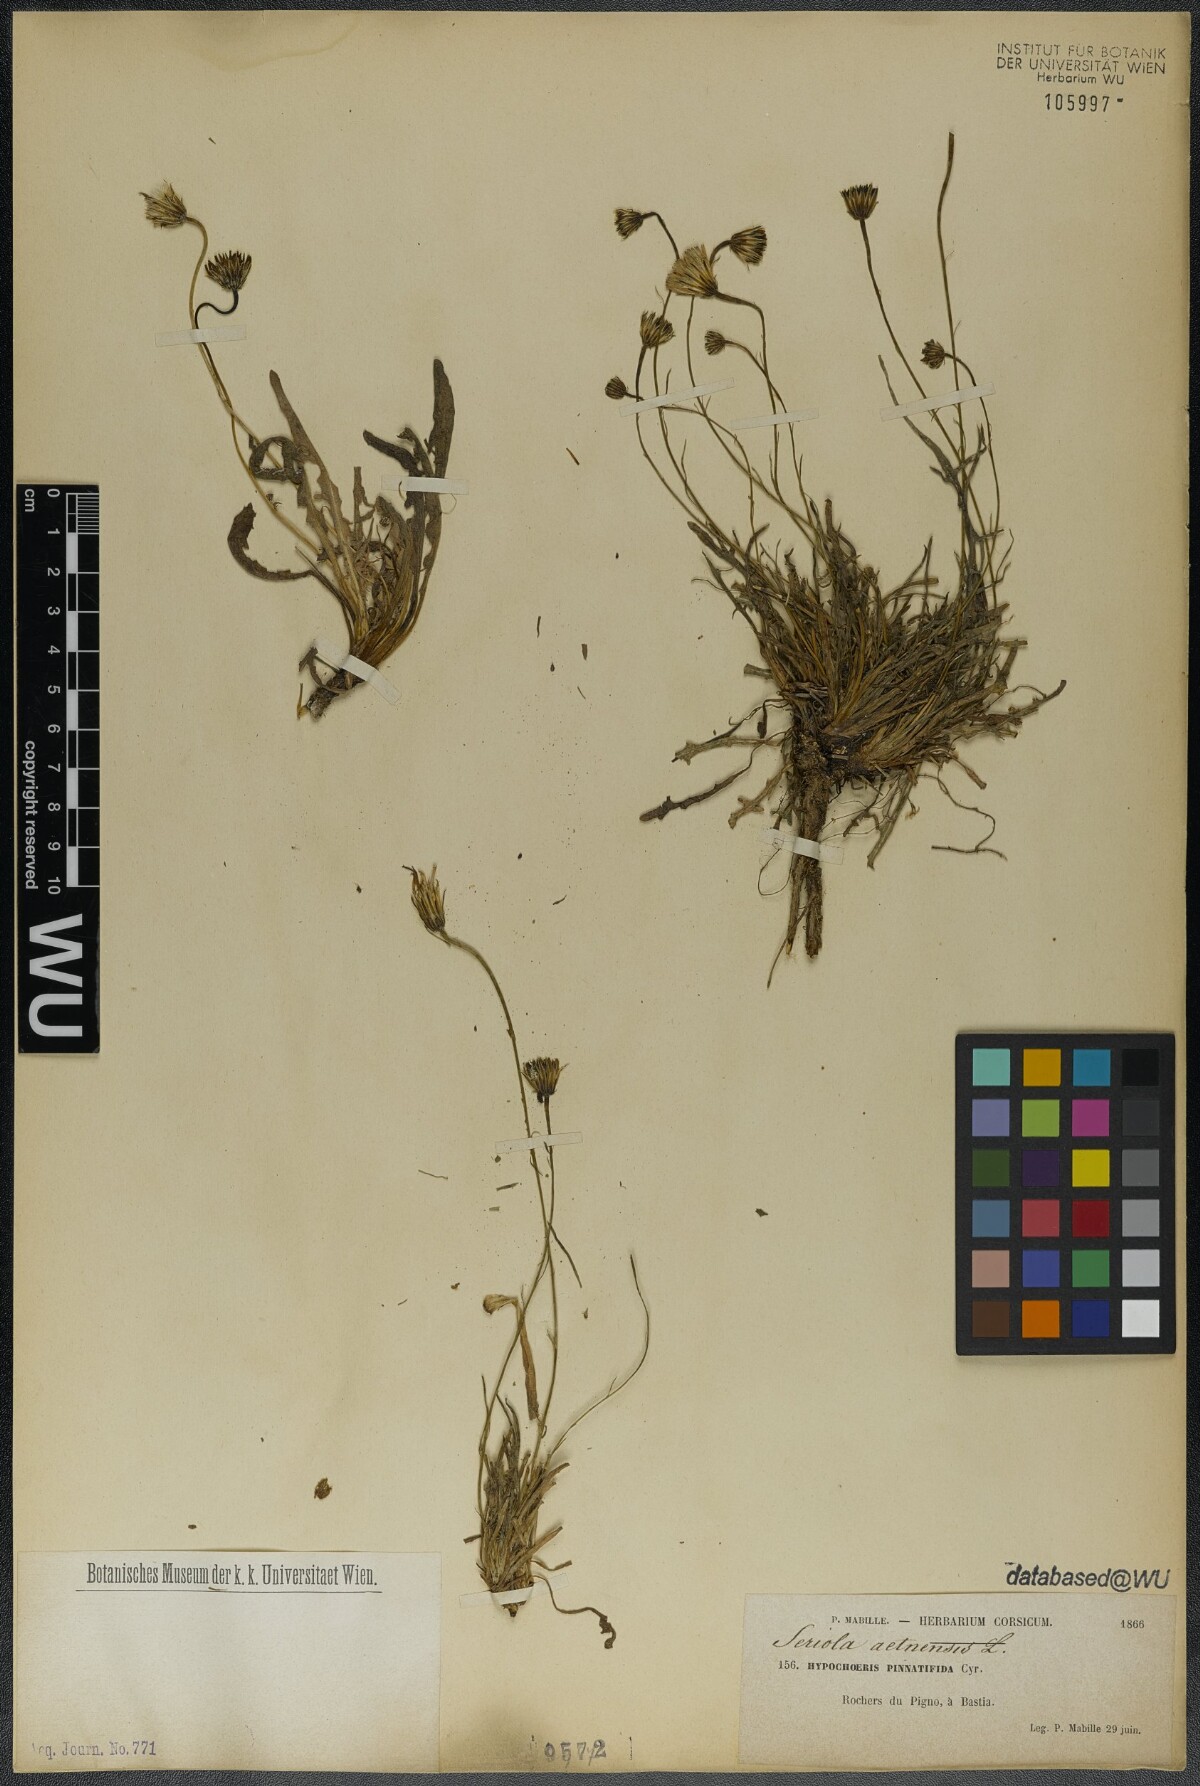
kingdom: Plantae
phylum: Tracheophyta
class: Magnoliopsida
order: Asterales
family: Asteraceae
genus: Hypochaeris
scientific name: Hypochaeris cretensis
